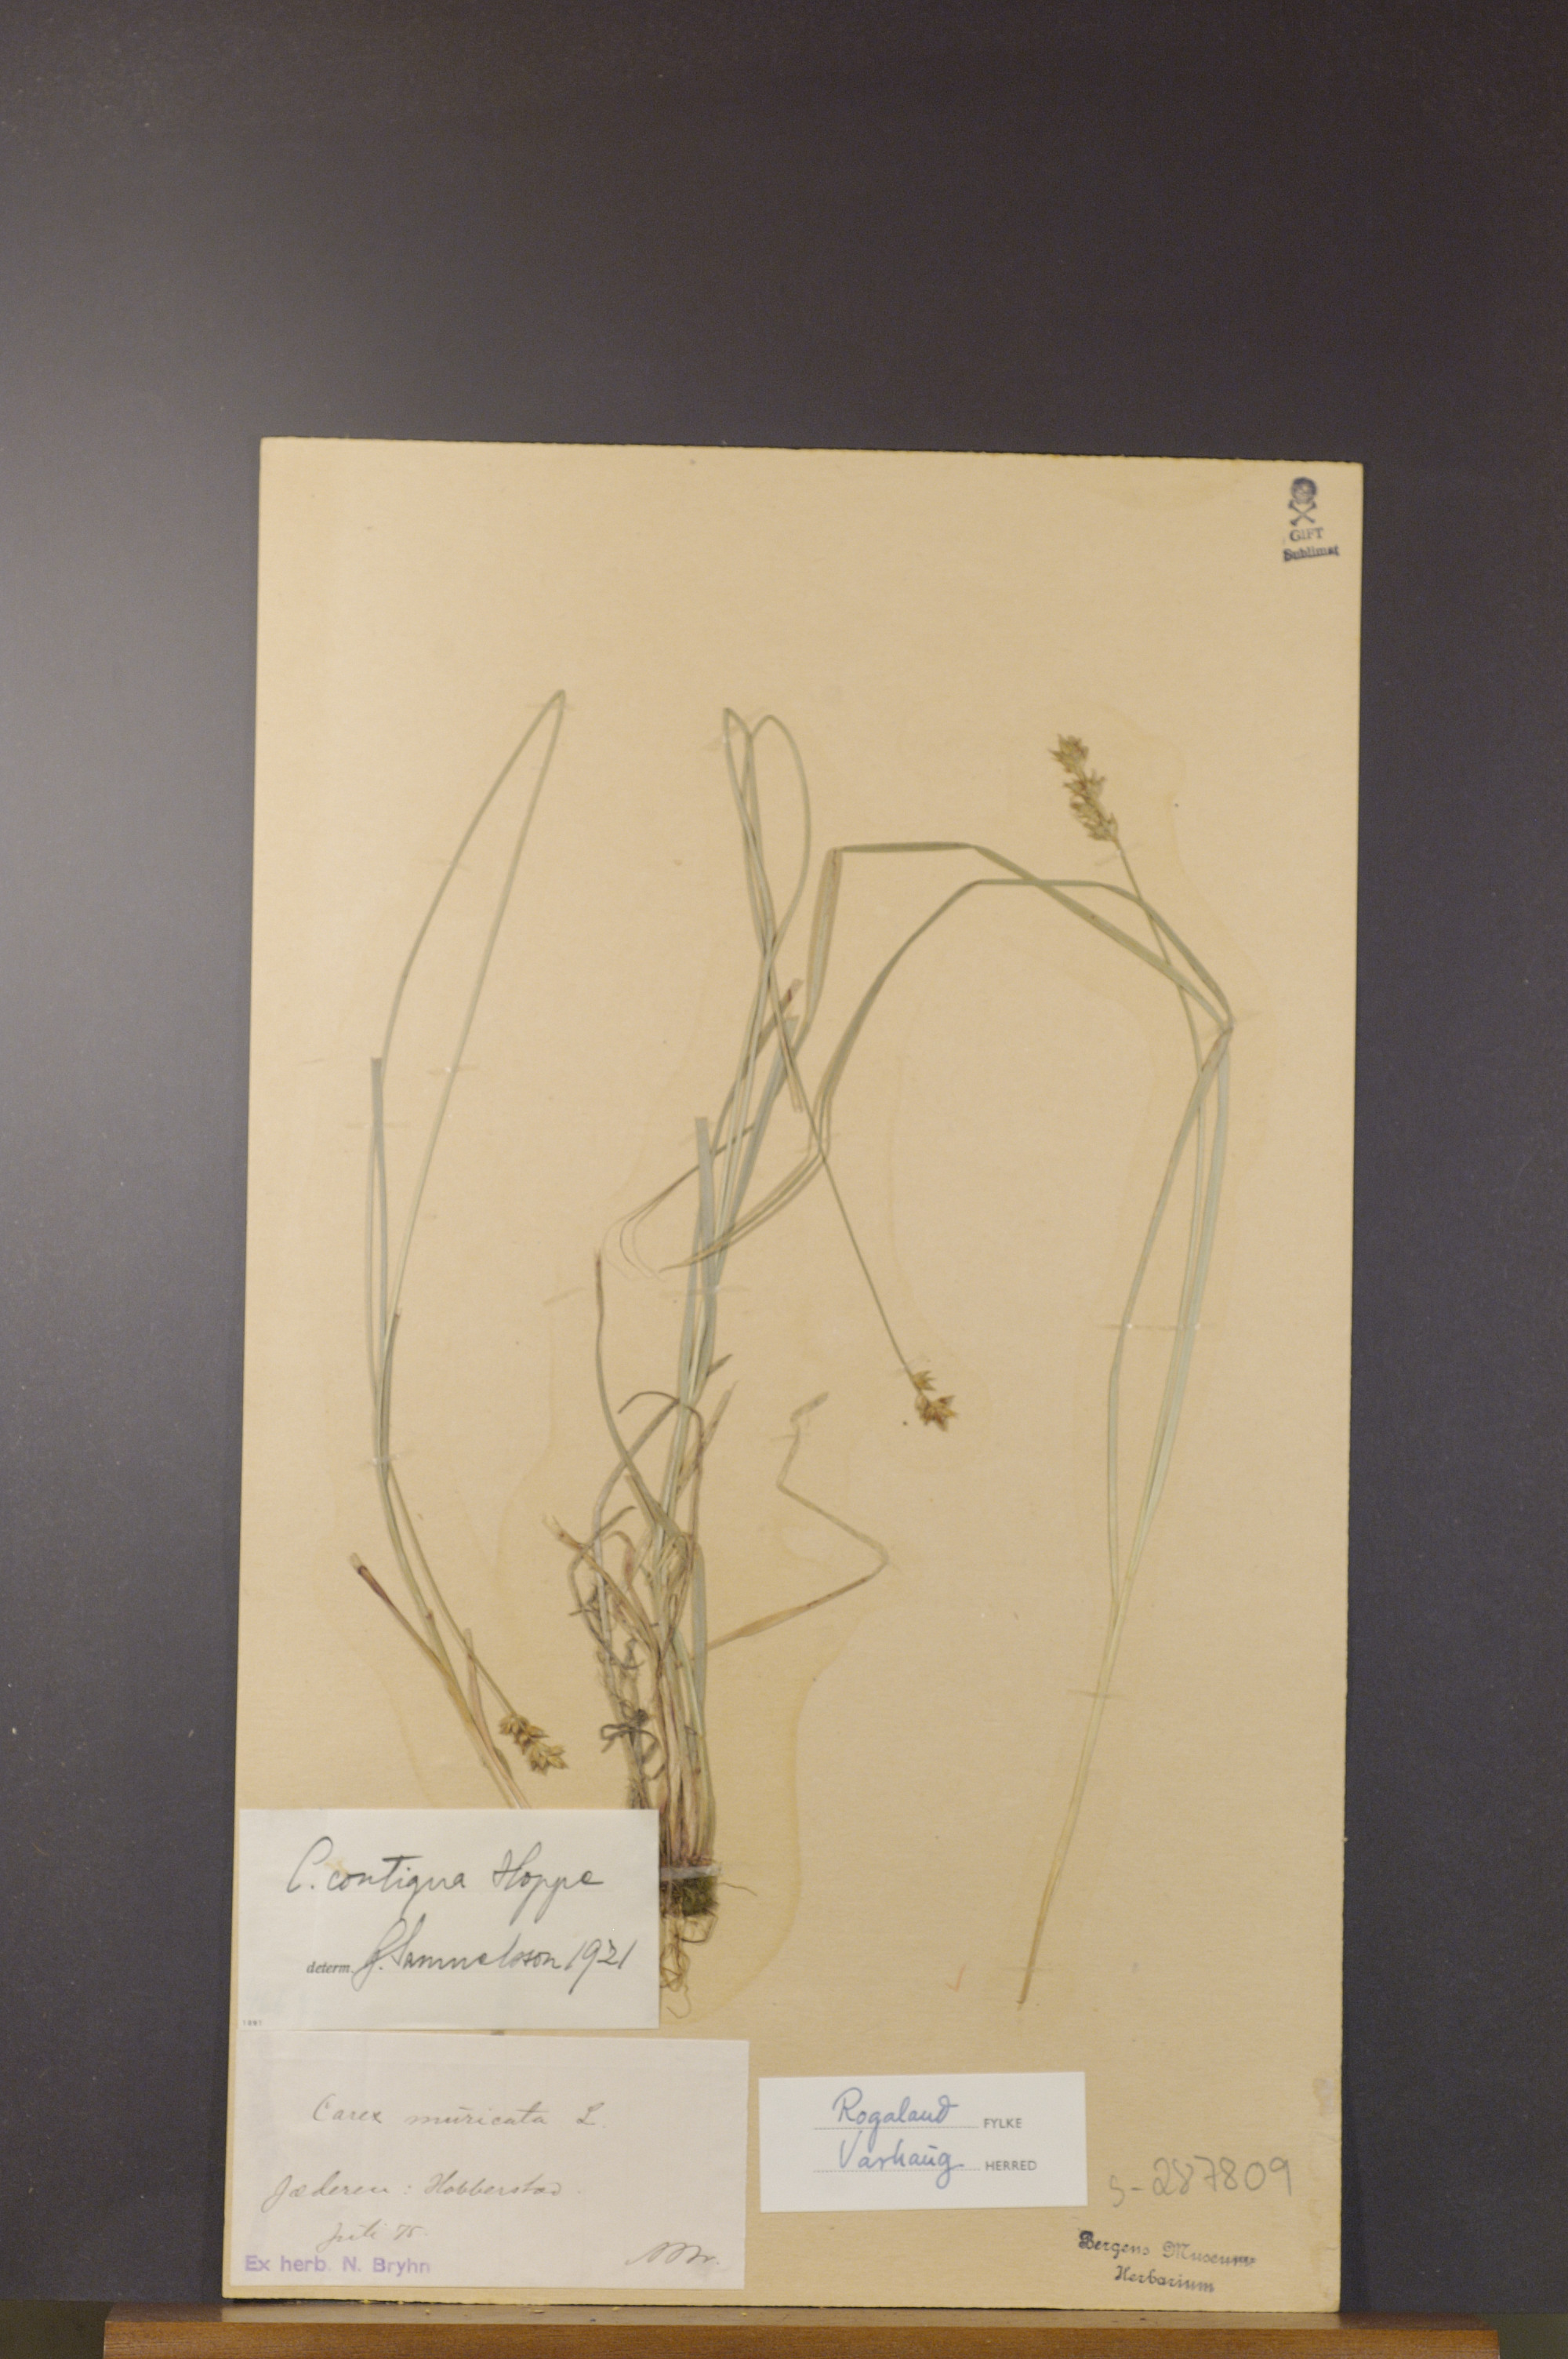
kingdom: Plantae
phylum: Tracheophyta
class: Liliopsida
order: Poales
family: Cyperaceae
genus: Carex
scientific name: Carex spicata
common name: Spiked sedge
